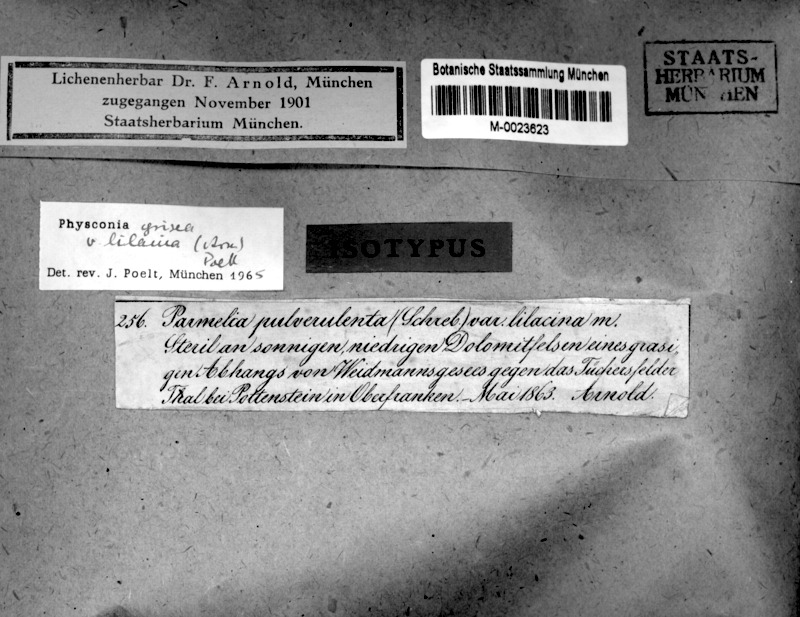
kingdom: Fungi
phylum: Ascomycota
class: Lecanoromycetes
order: Caliciales
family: Physciaceae
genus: Poeltonia
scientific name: Poeltonia grisea
